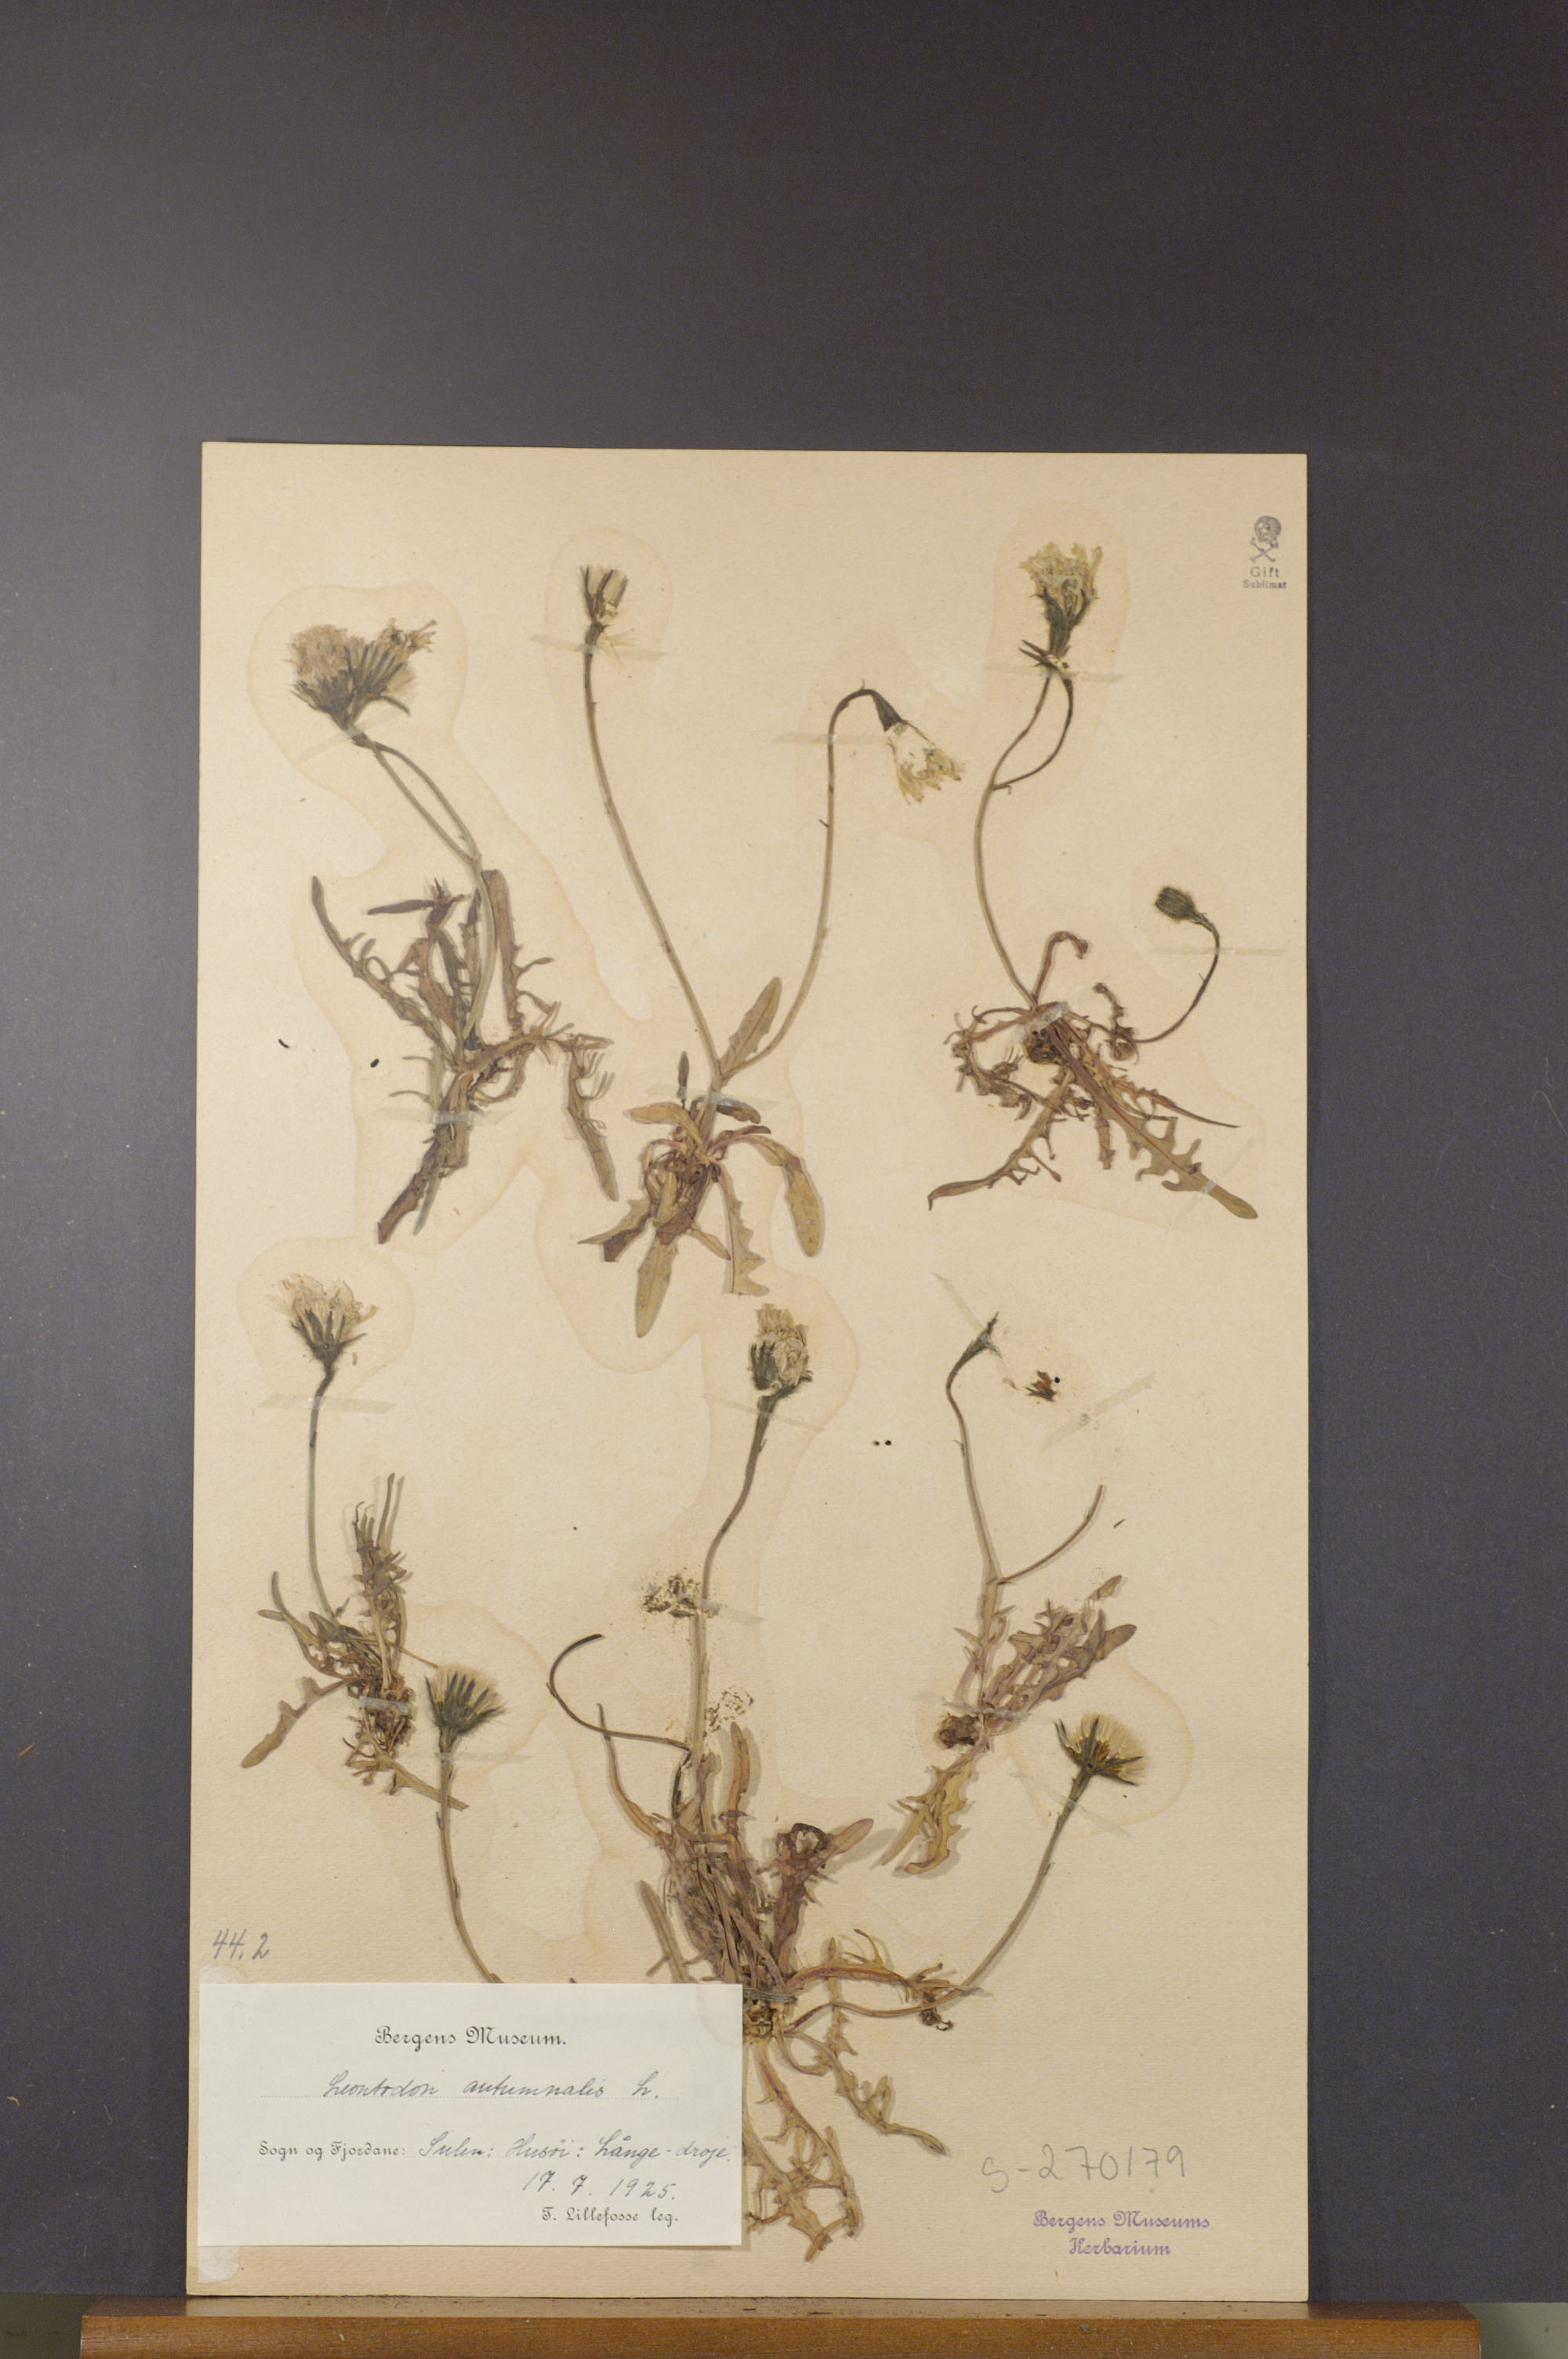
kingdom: Plantae
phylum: Tracheophyta
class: Magnoliopsida
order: Asterales
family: Asteraceae
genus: Scorzoneroides
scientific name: Scorzoneroides autumnalis
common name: Autumn hawkbit
